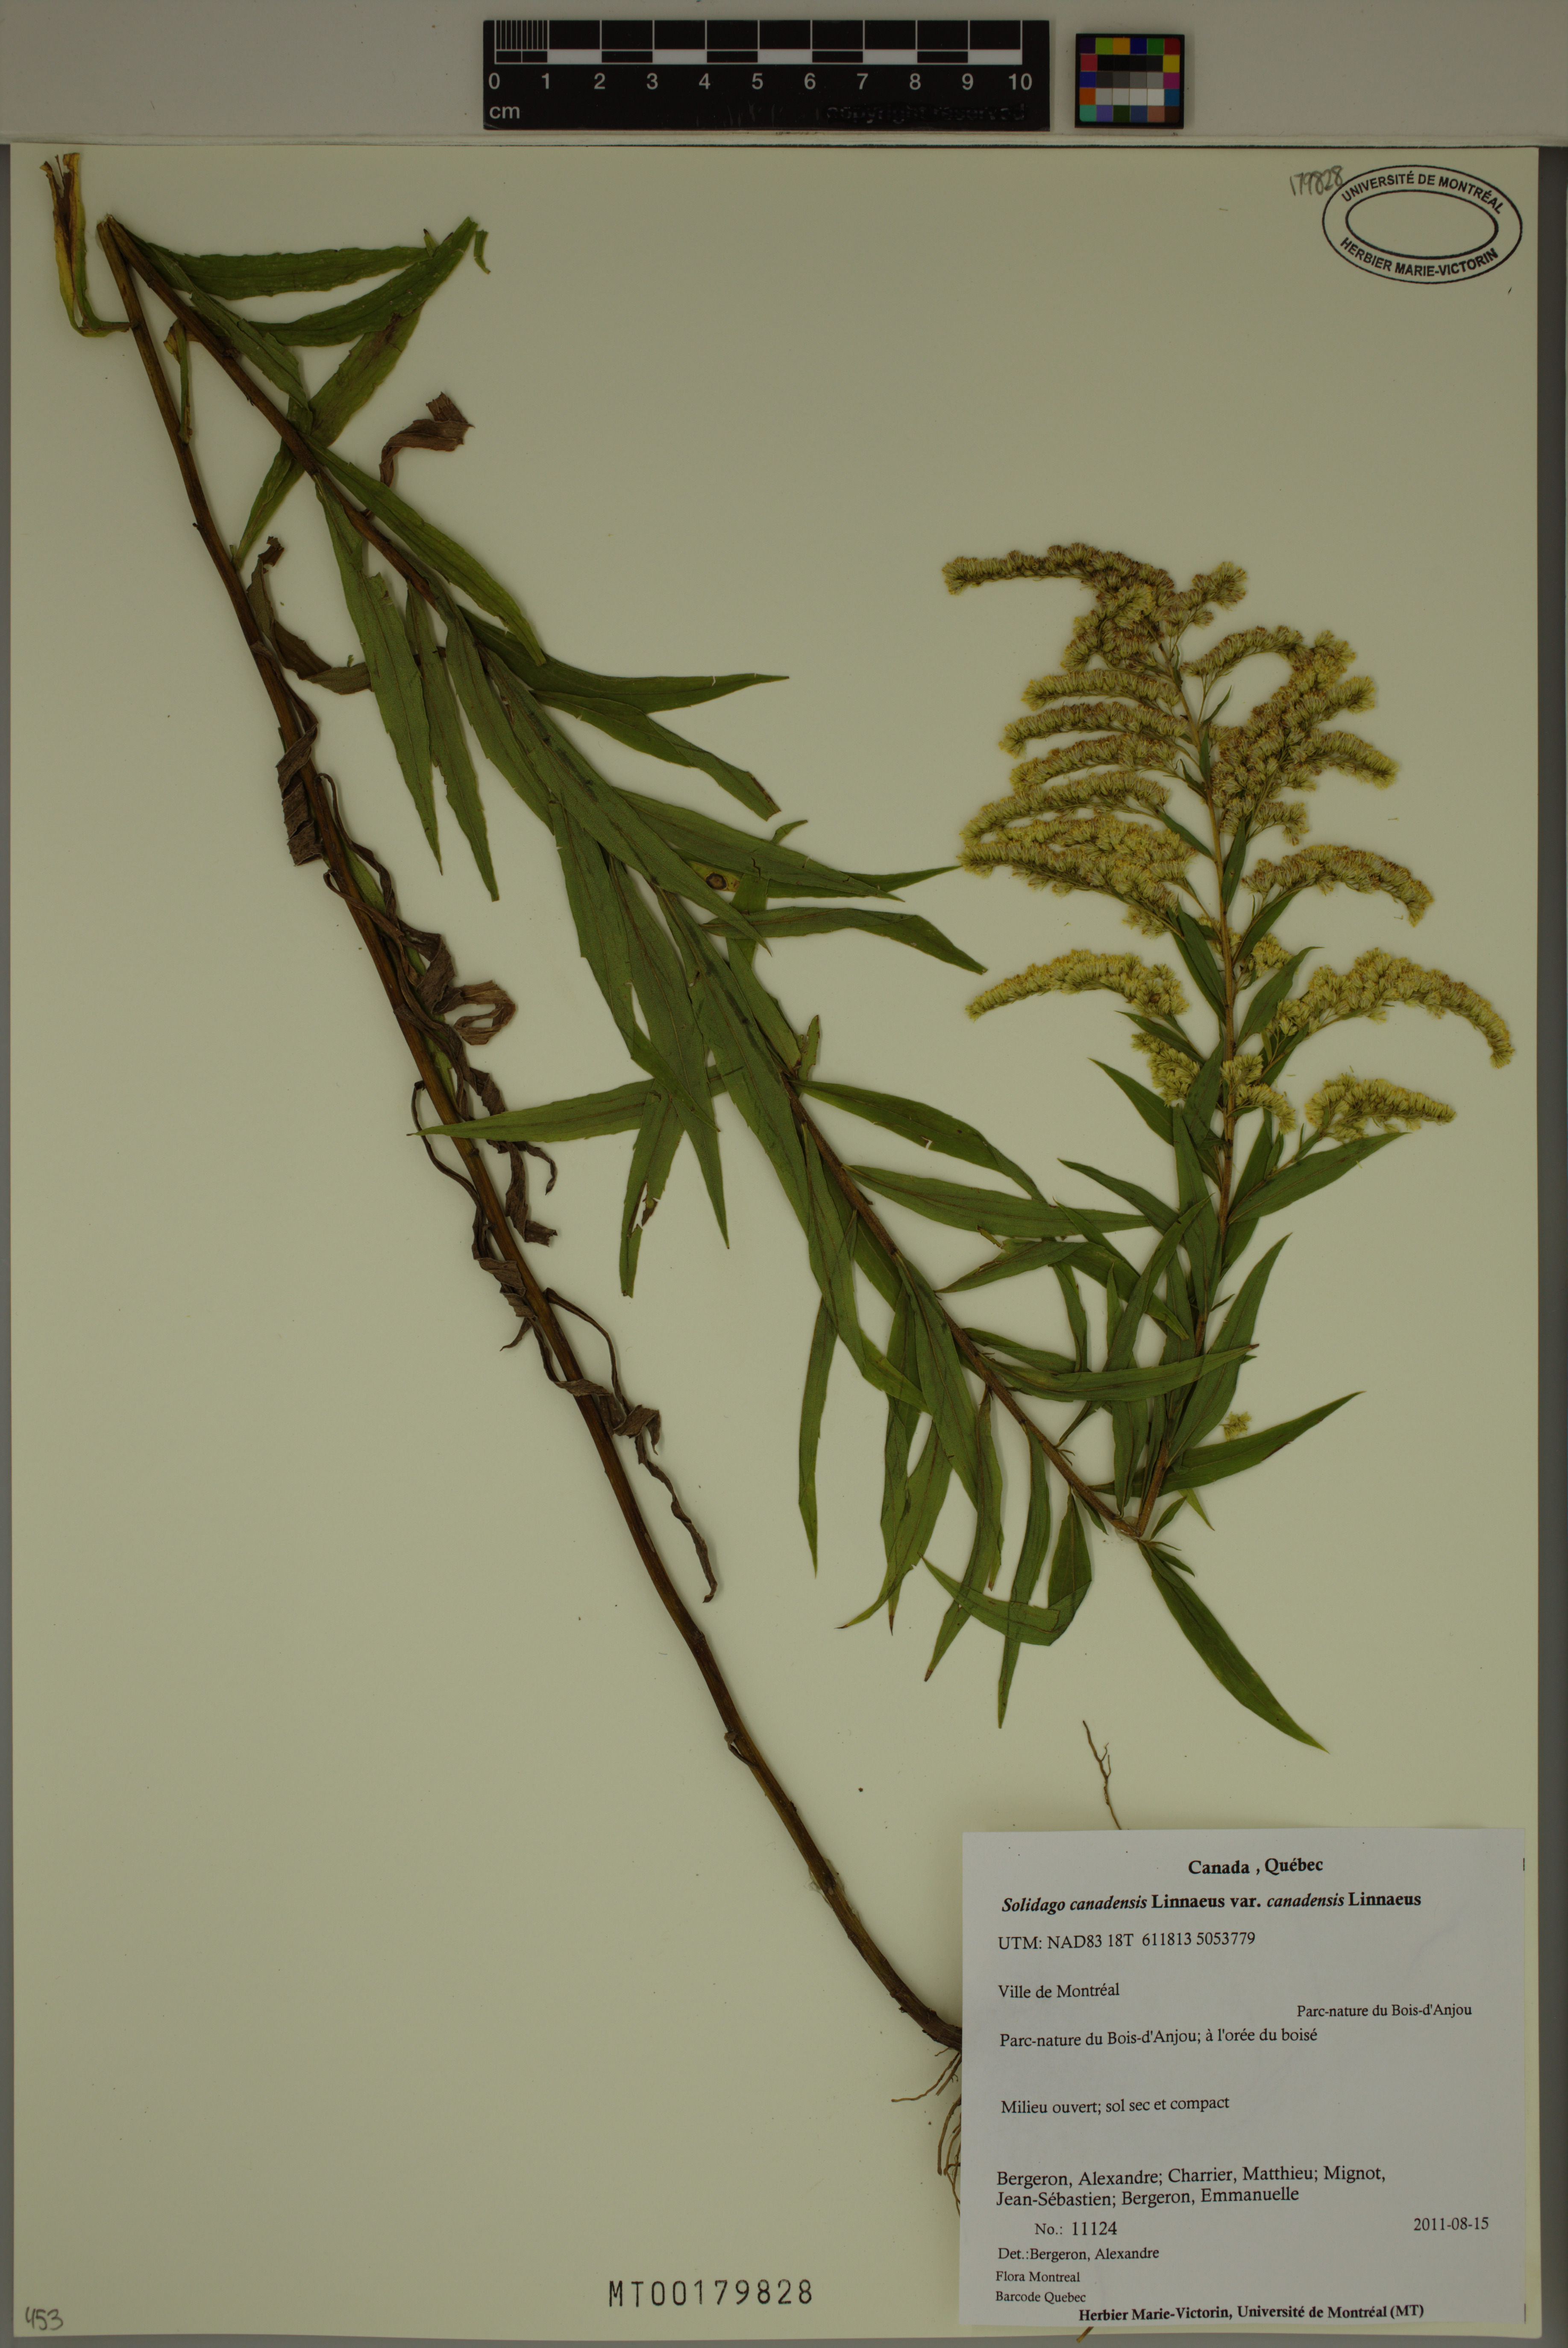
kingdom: Plantae
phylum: Tracheophyta
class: Magnoliopsida
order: Asterales
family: Asteraceae
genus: Solidago
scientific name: Solidago canadensis
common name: Canada goldenrod
